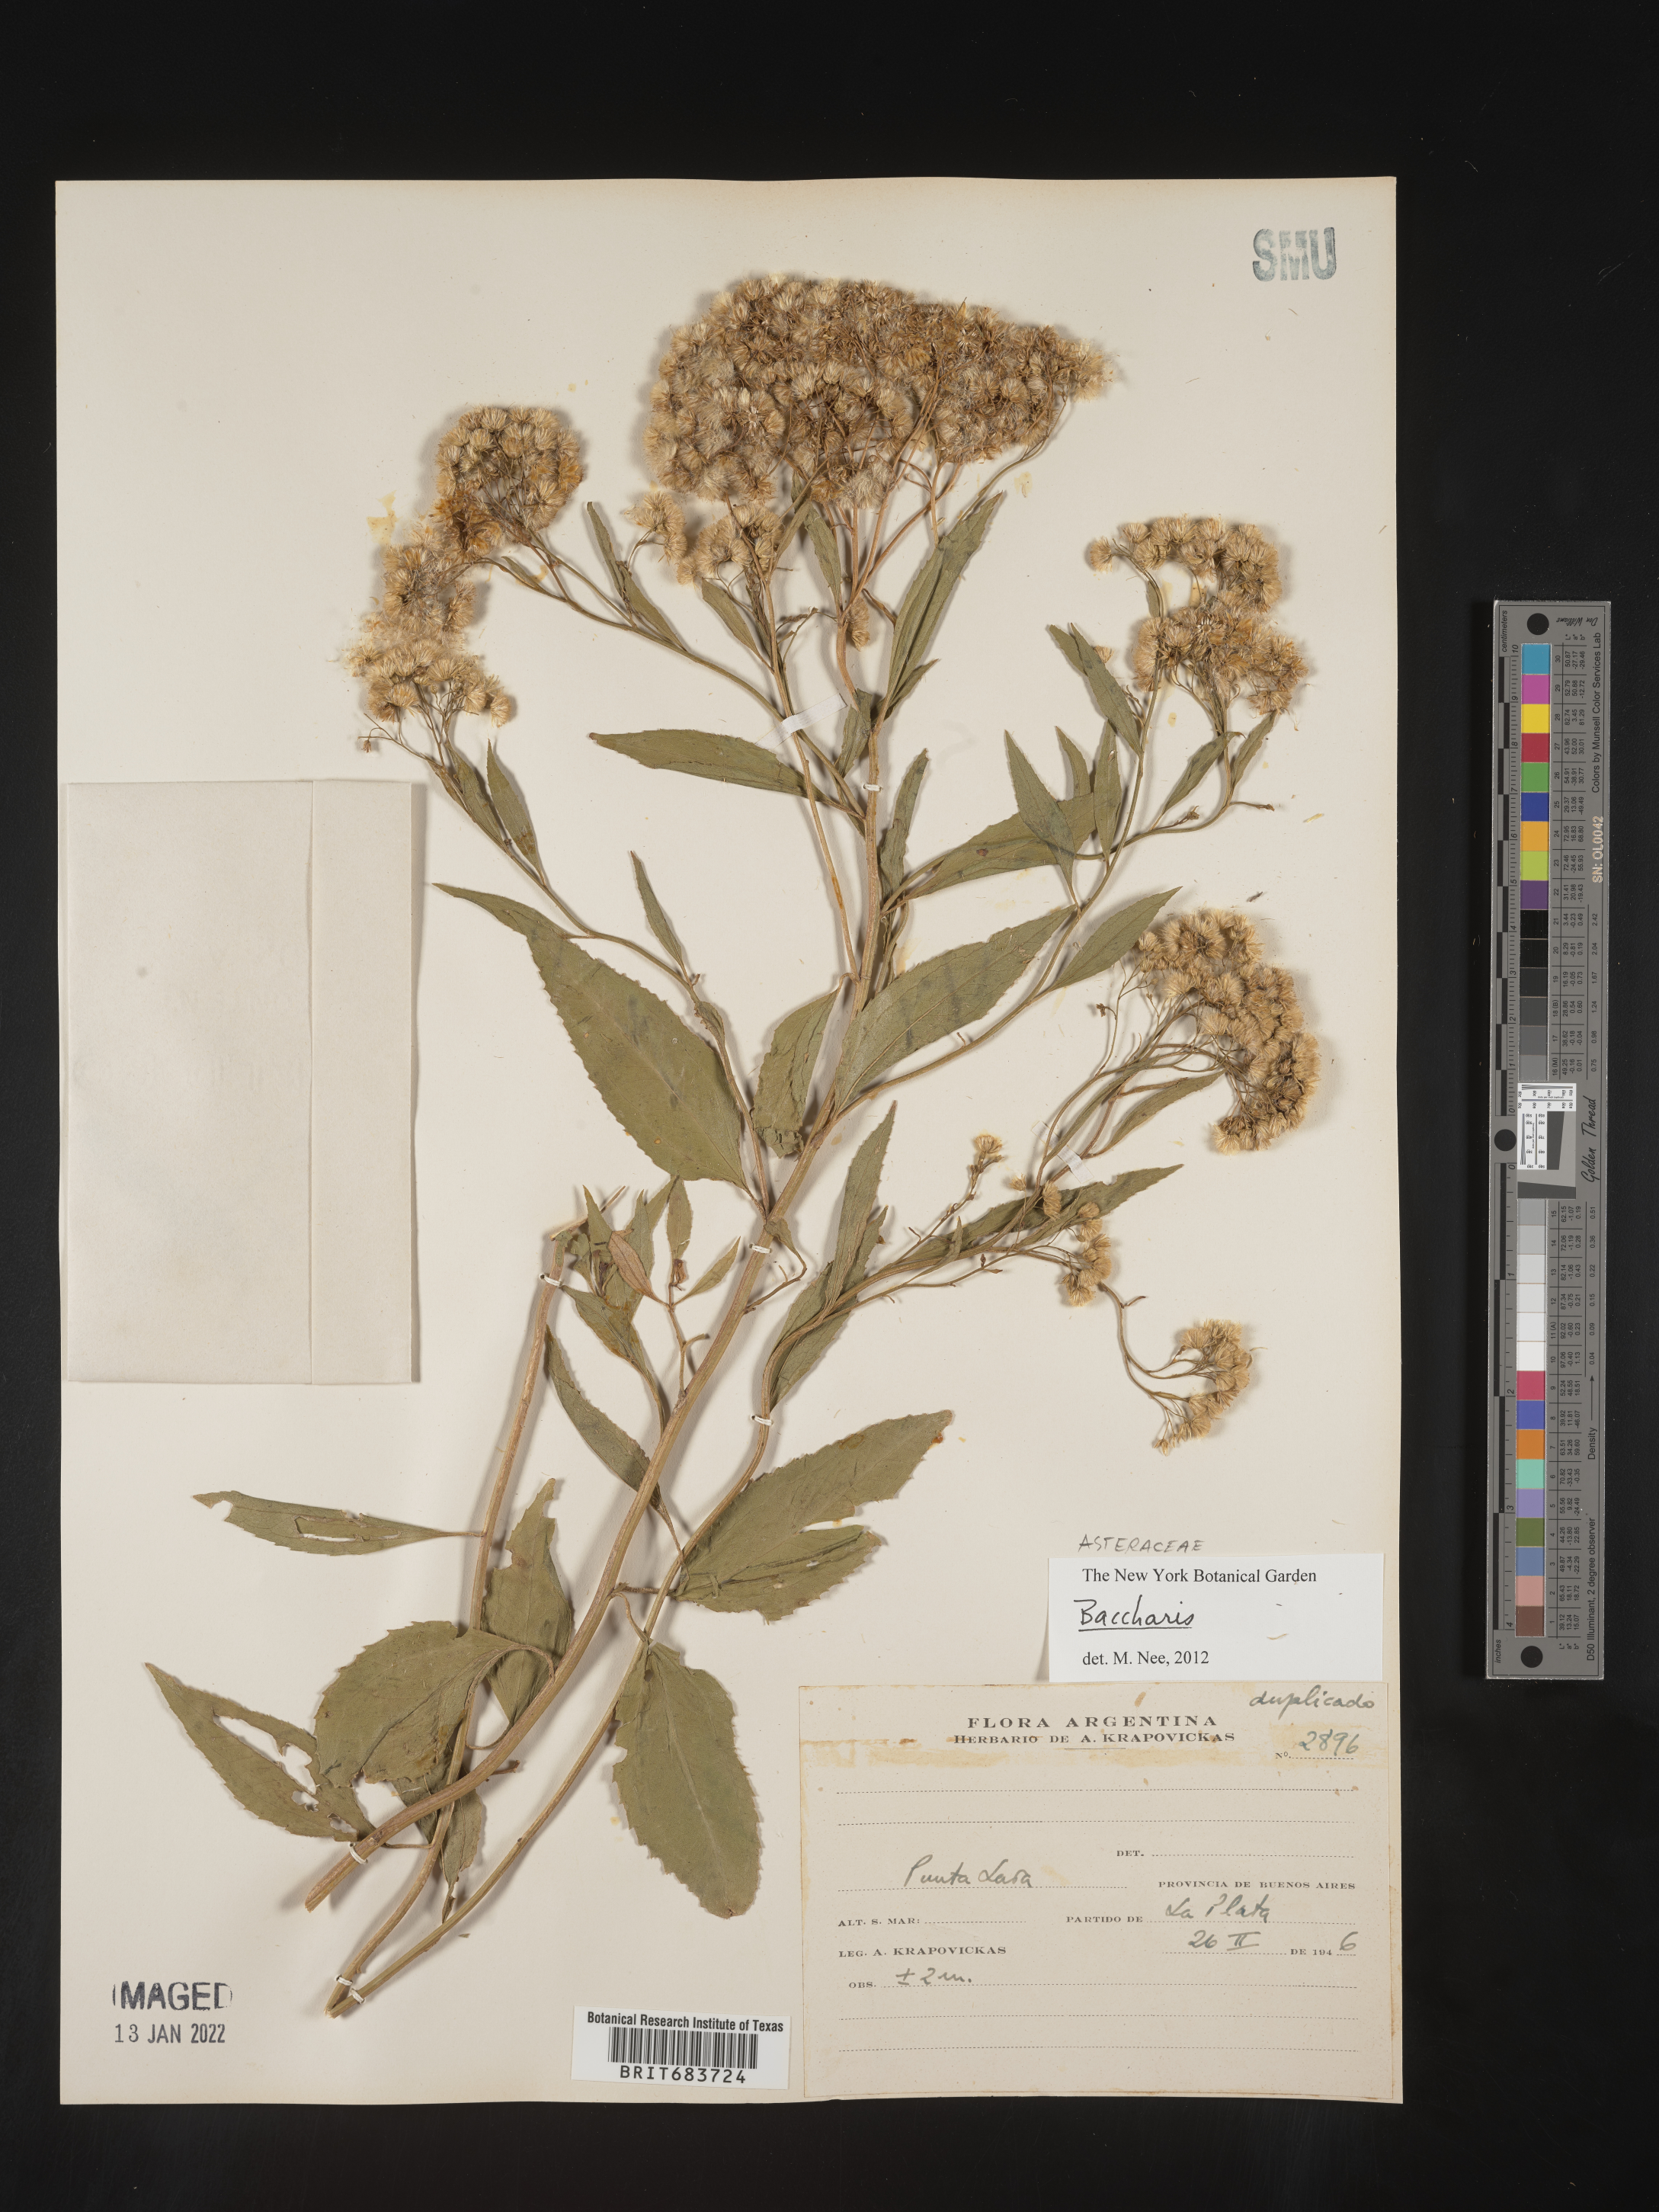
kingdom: Plantae
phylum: Tracheophyta
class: Magnoliopsida
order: Asterales
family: Asteraceae
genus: Baccharis
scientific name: Baccharis
